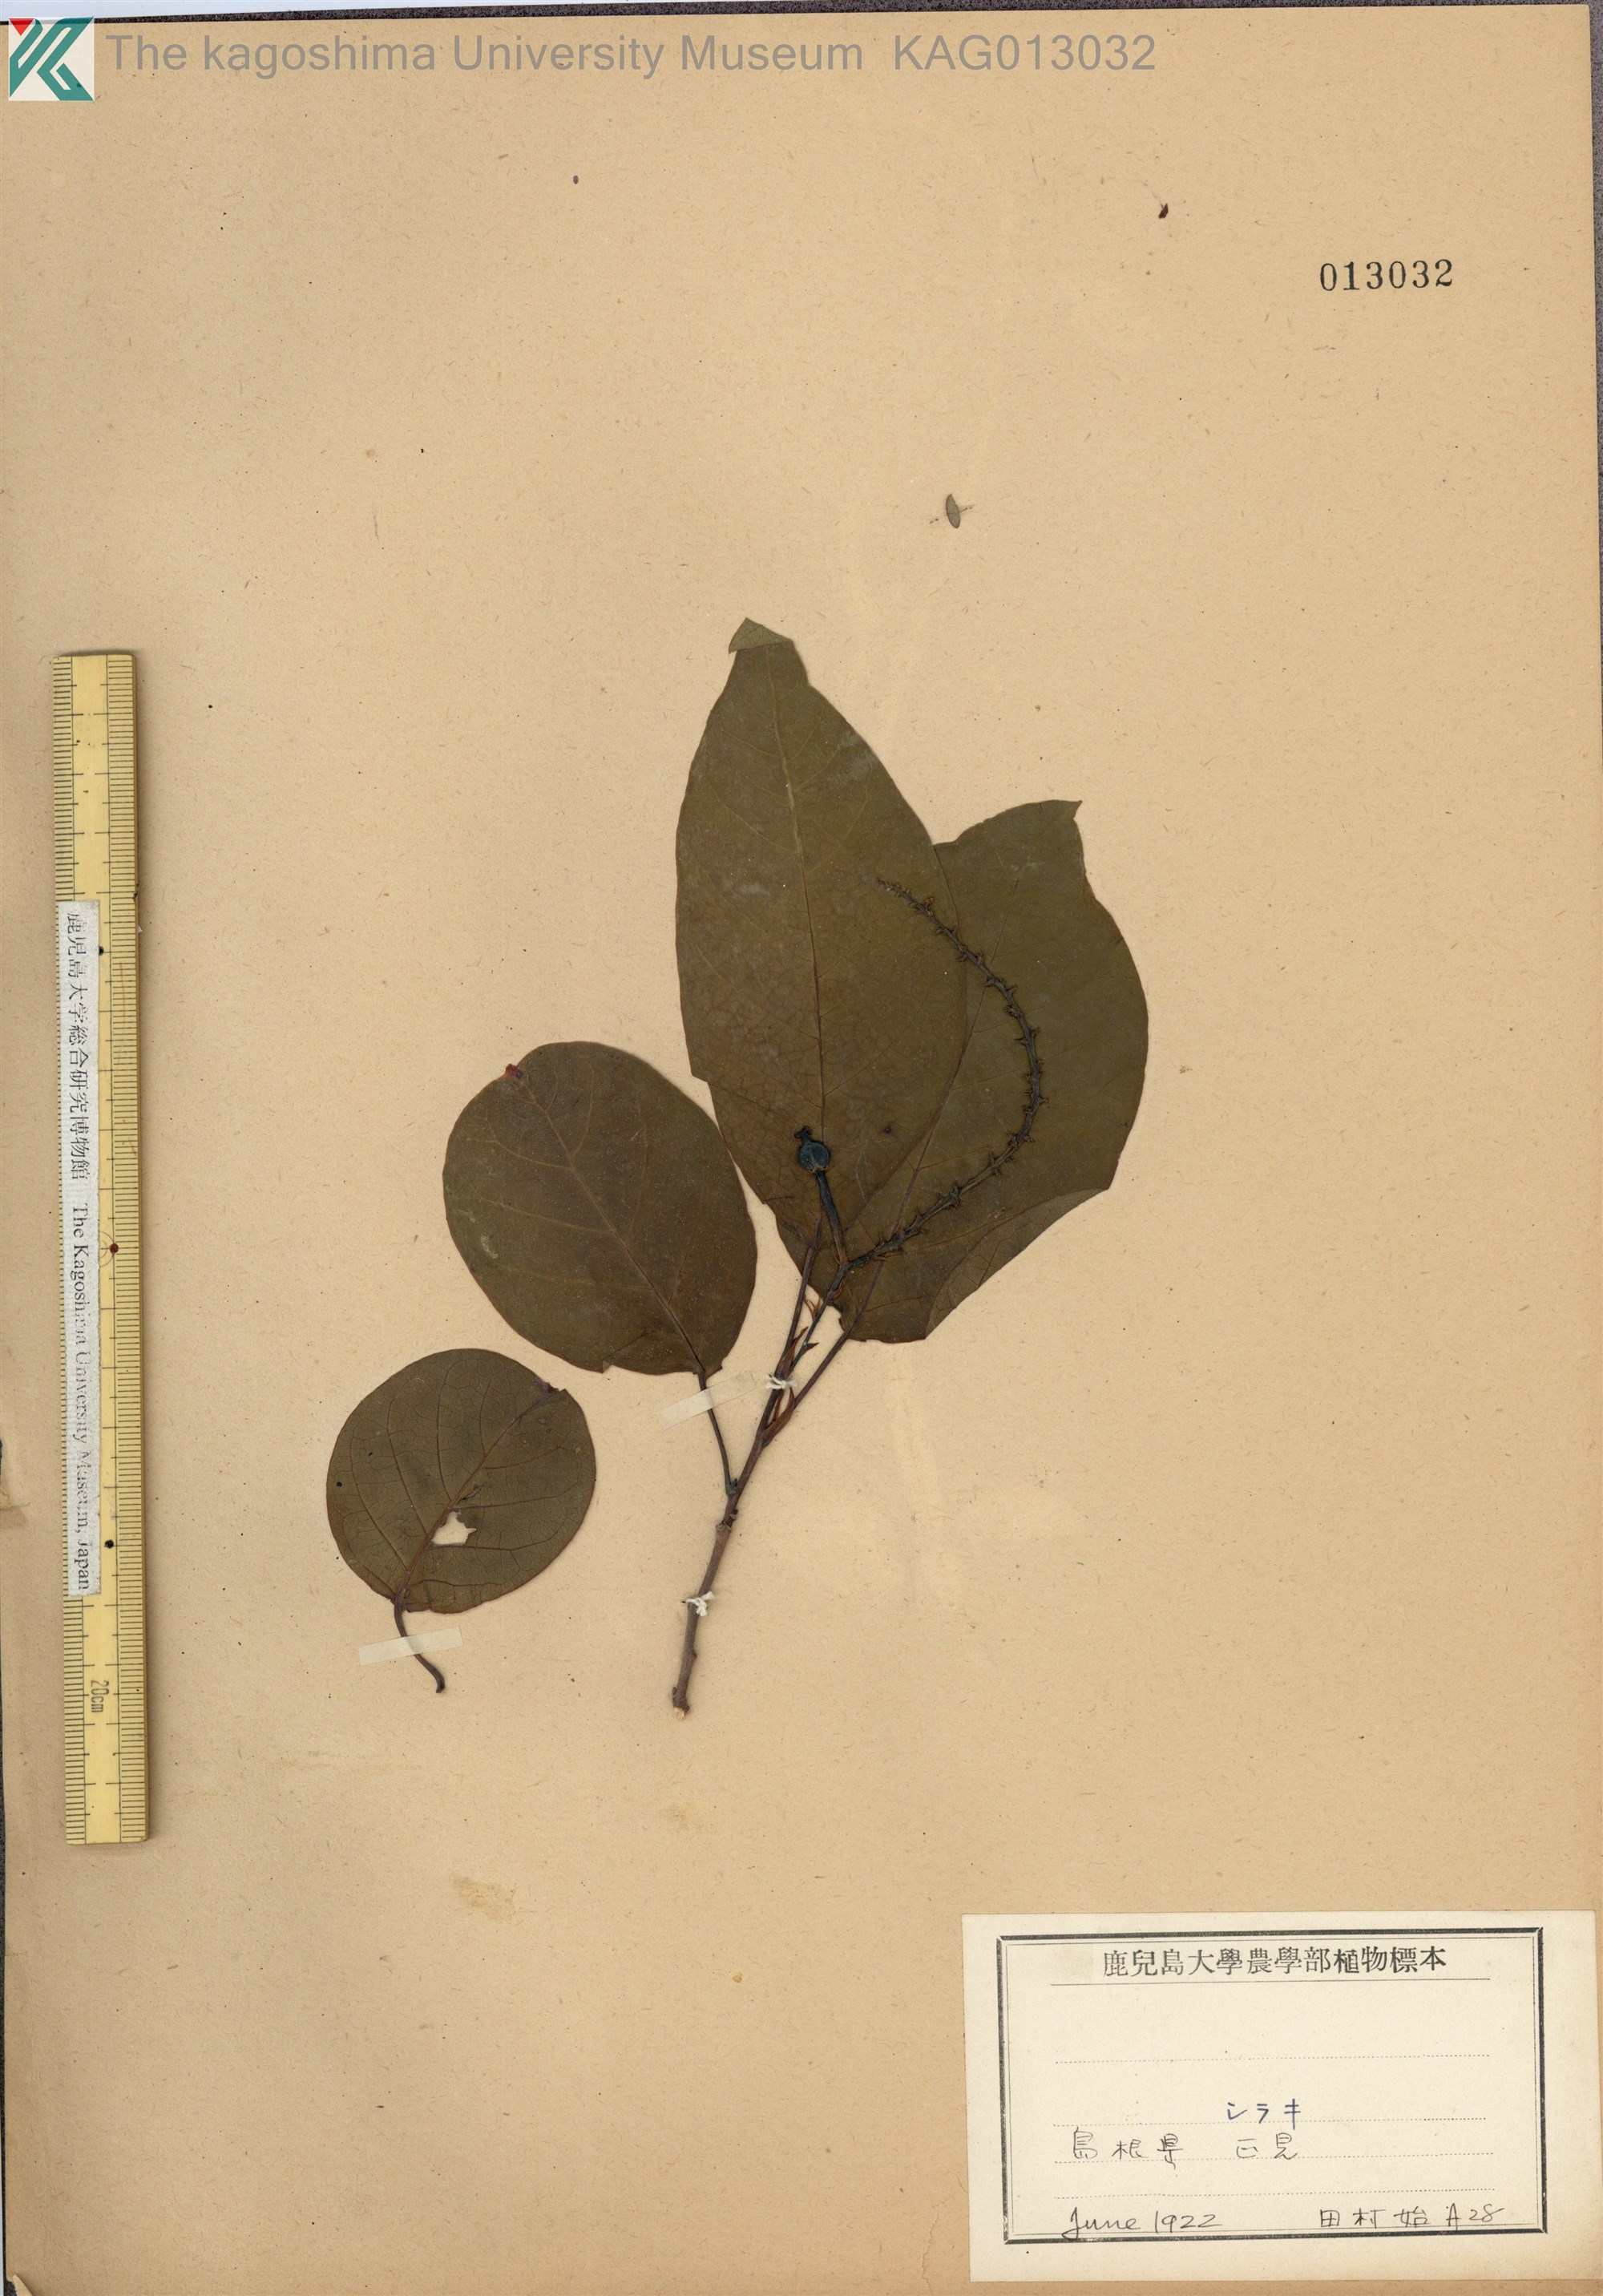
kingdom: Plantae
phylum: Tracheophyta
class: Magnoliopsida
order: Malpighiales
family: Euphorbiaceae
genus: Neoshirakia
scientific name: Neoshirakia japonica
